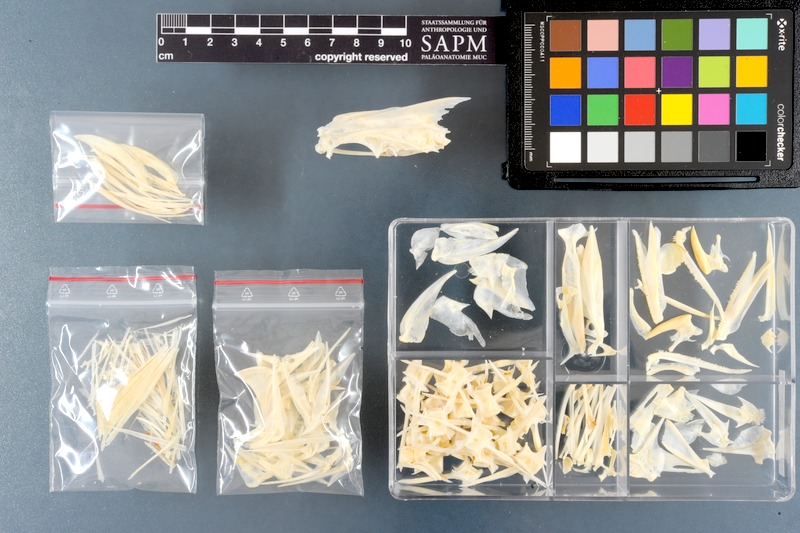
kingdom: Animalia
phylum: Chordata
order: Perciformes
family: Carangidae
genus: Scomberoides
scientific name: Scomberoides lysan
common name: Doublespotted queenfish
